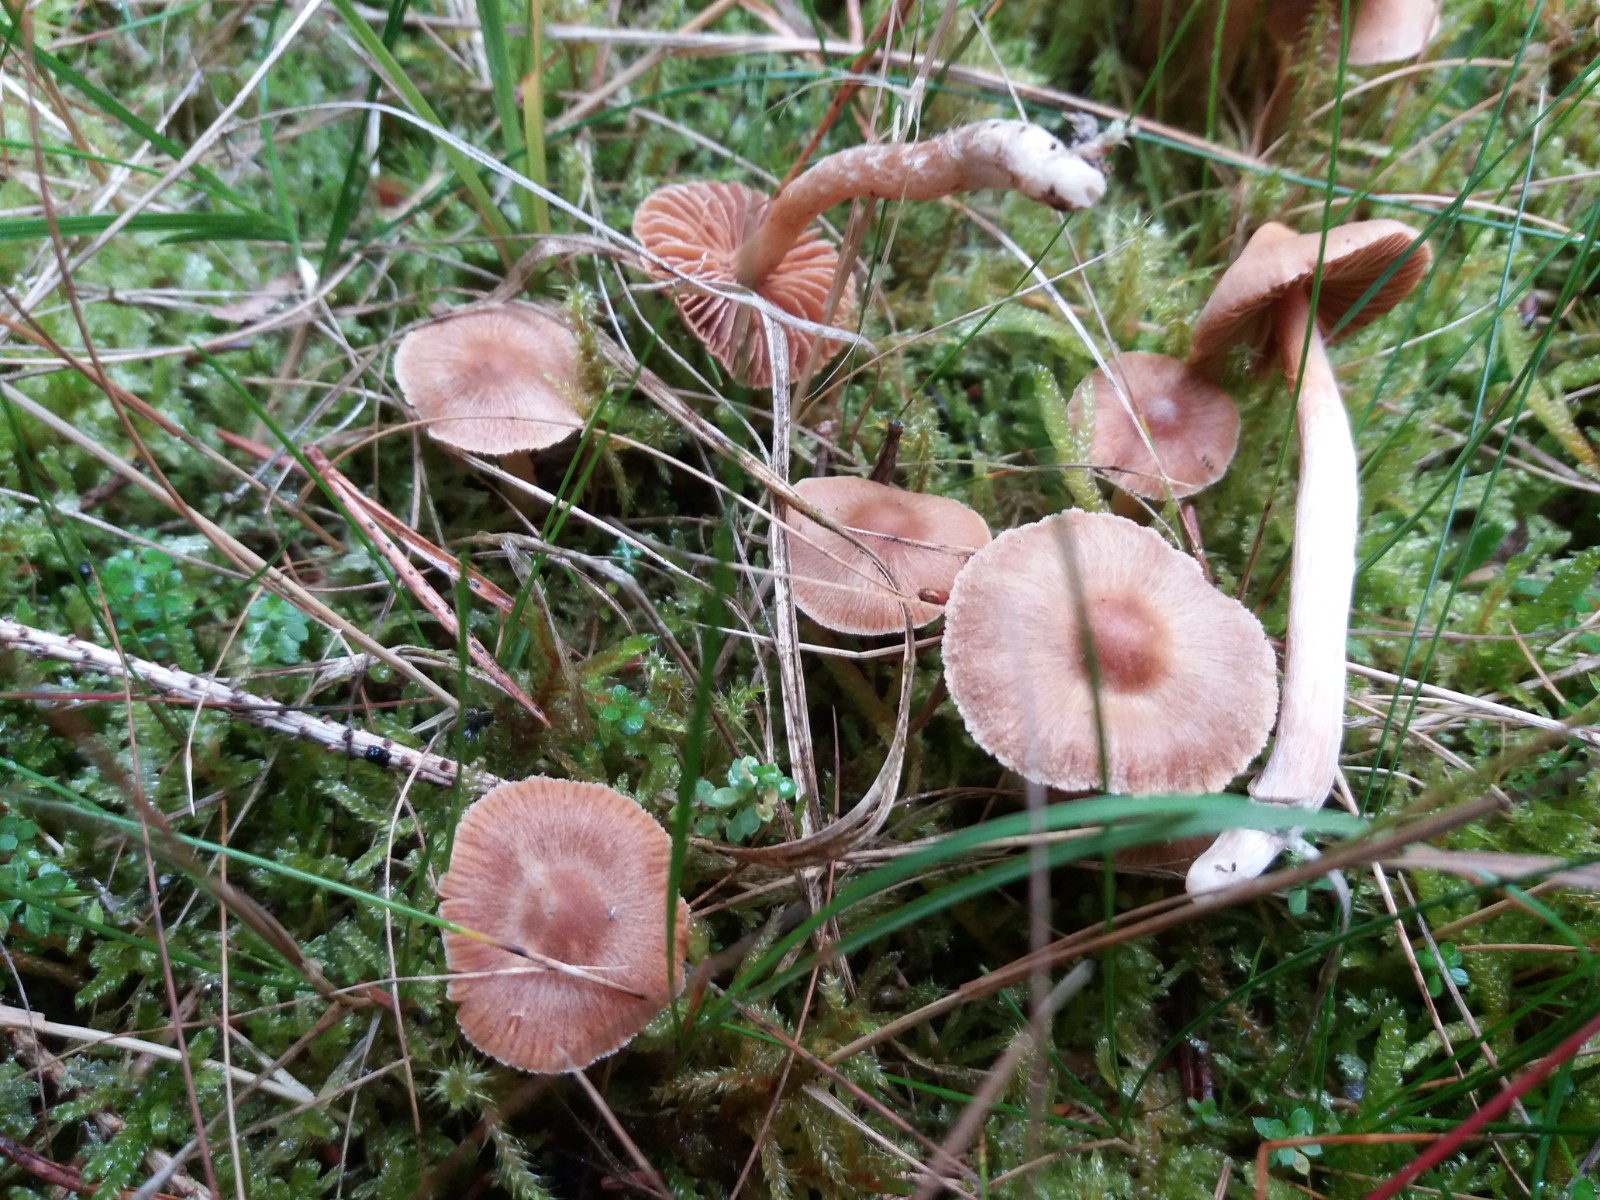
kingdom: Fungi
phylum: Basidiomycota
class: Agaricomycetes
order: Agaricales
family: Cortinariaceae
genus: Cortinarius
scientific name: Cortinarius mammillatus
